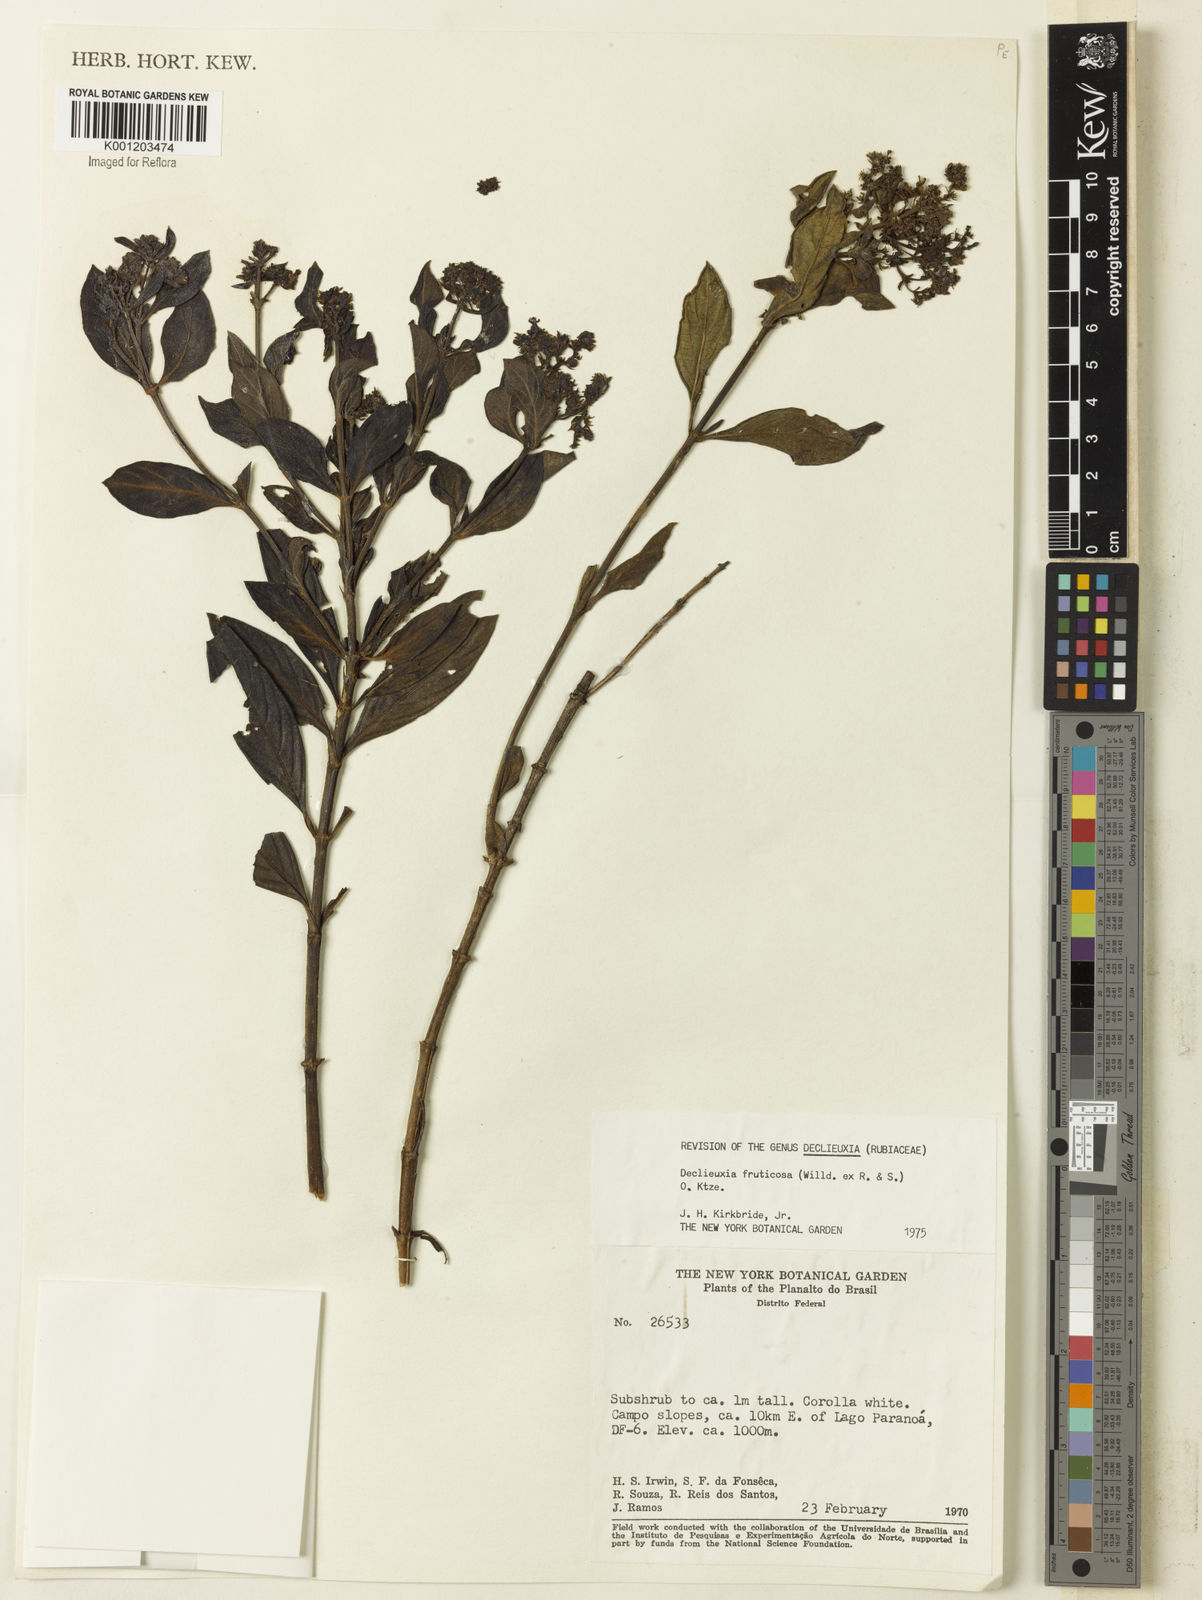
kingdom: Plantae
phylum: Tracheophyta
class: Magnoliopsida
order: Gentianales
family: Rubiaceae
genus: Declieuxia
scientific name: Declieuxia fruticosa
